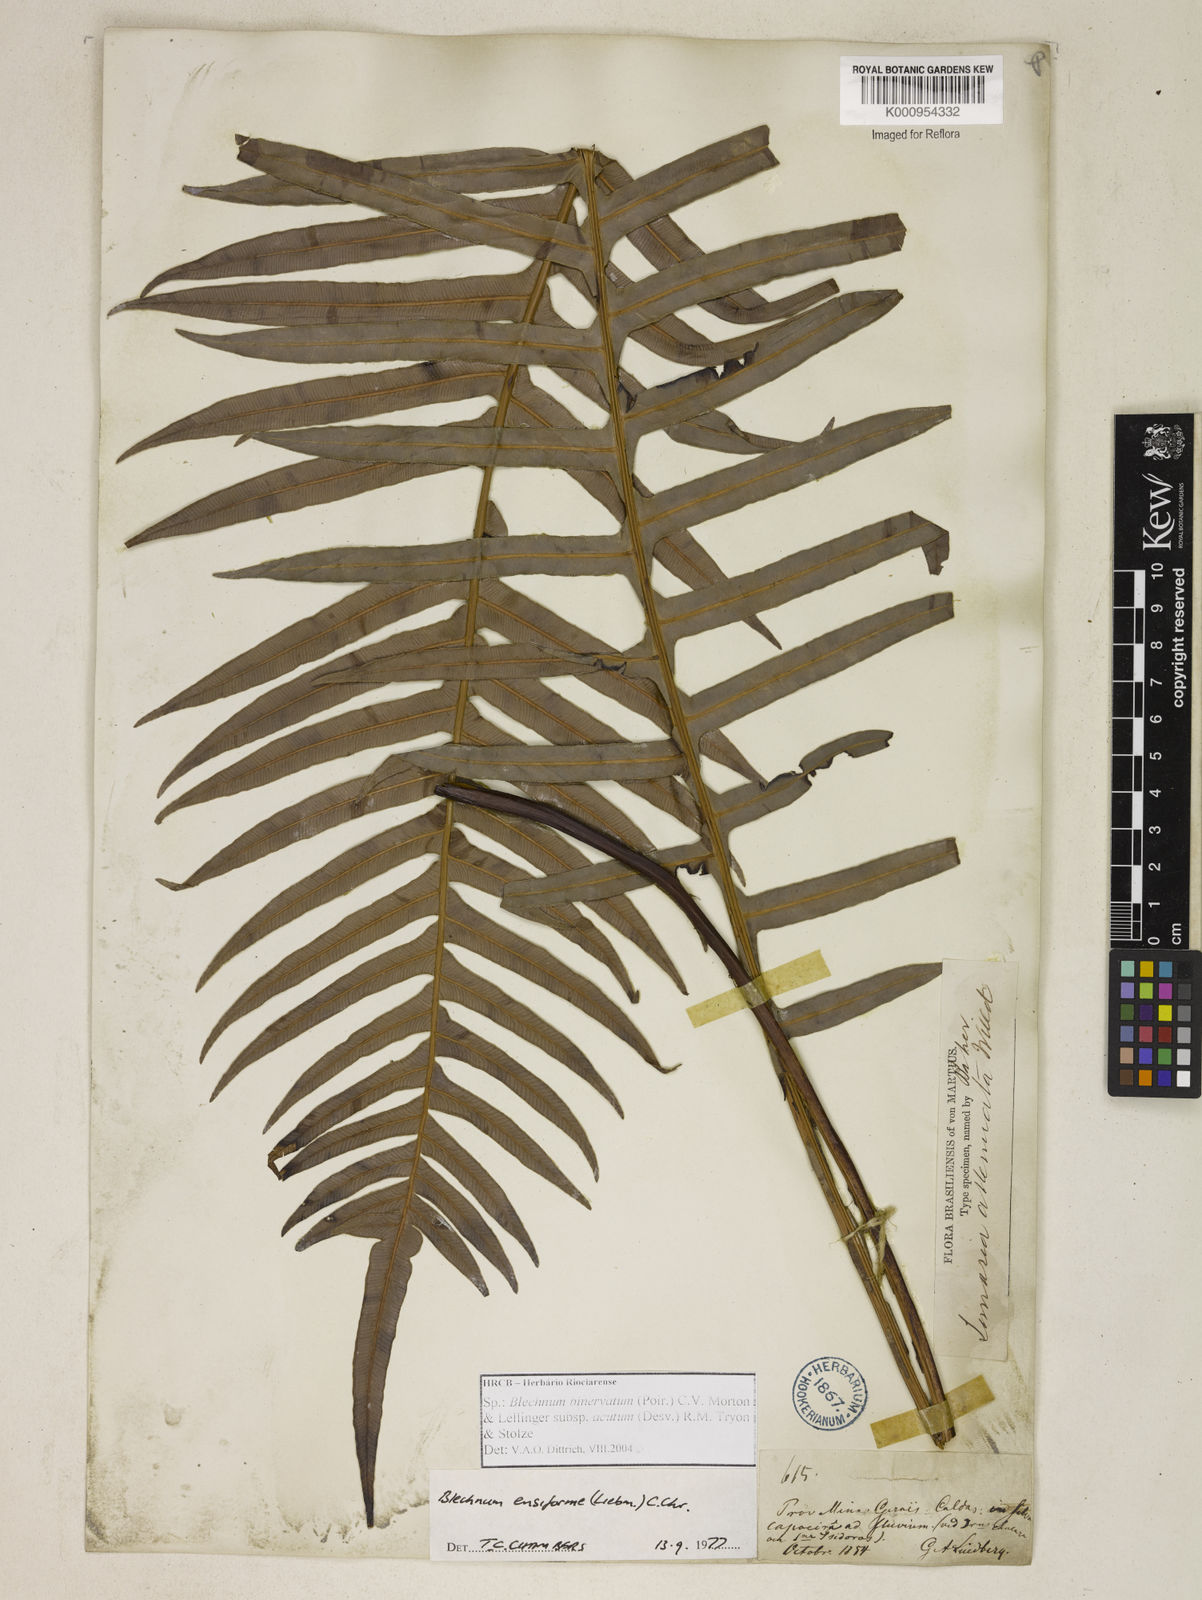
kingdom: Plantae
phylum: Tracheophyta
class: Polypodiopsida
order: Polypodiales
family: Blechnaceae
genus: Lomaridium
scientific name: Lomaridium ensiforme
